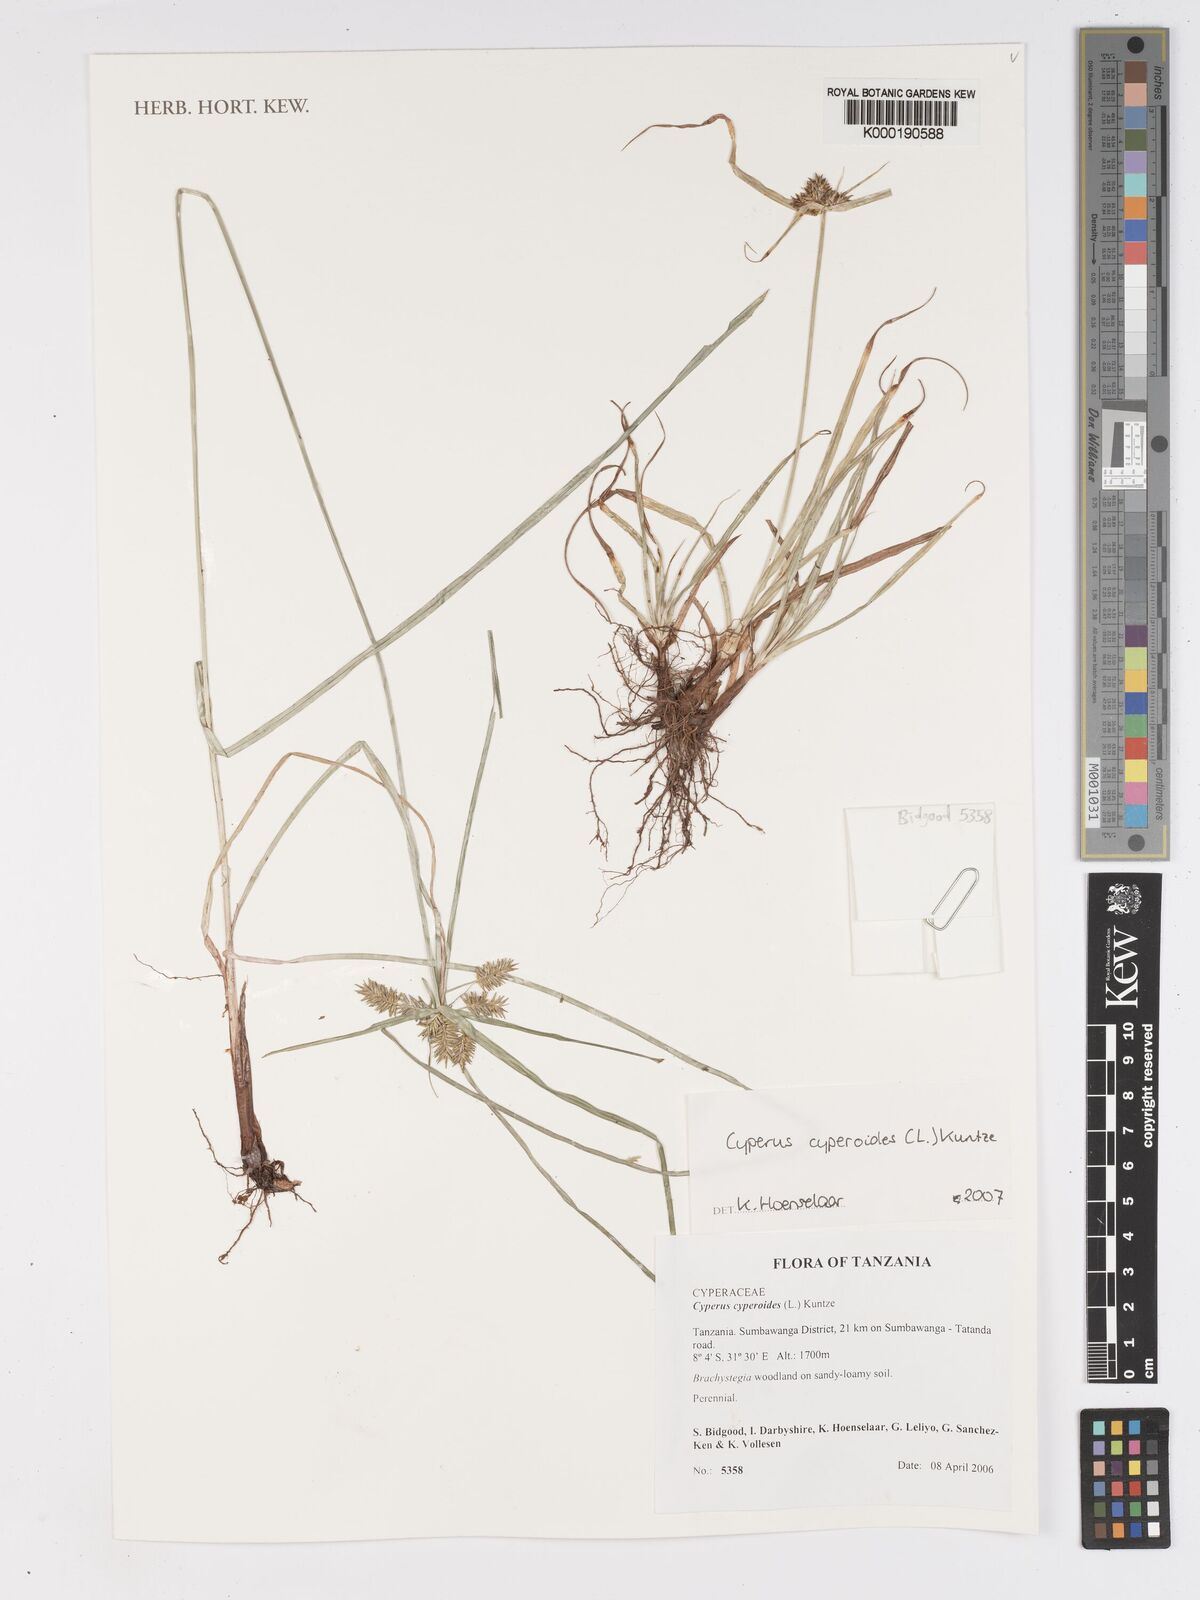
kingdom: Plantae
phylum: Tracheophyta
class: Liliopsida
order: Poales
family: Cyperaceae
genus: Cyperus
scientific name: Cyperus cyperoides
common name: Pacific island flat sedge
